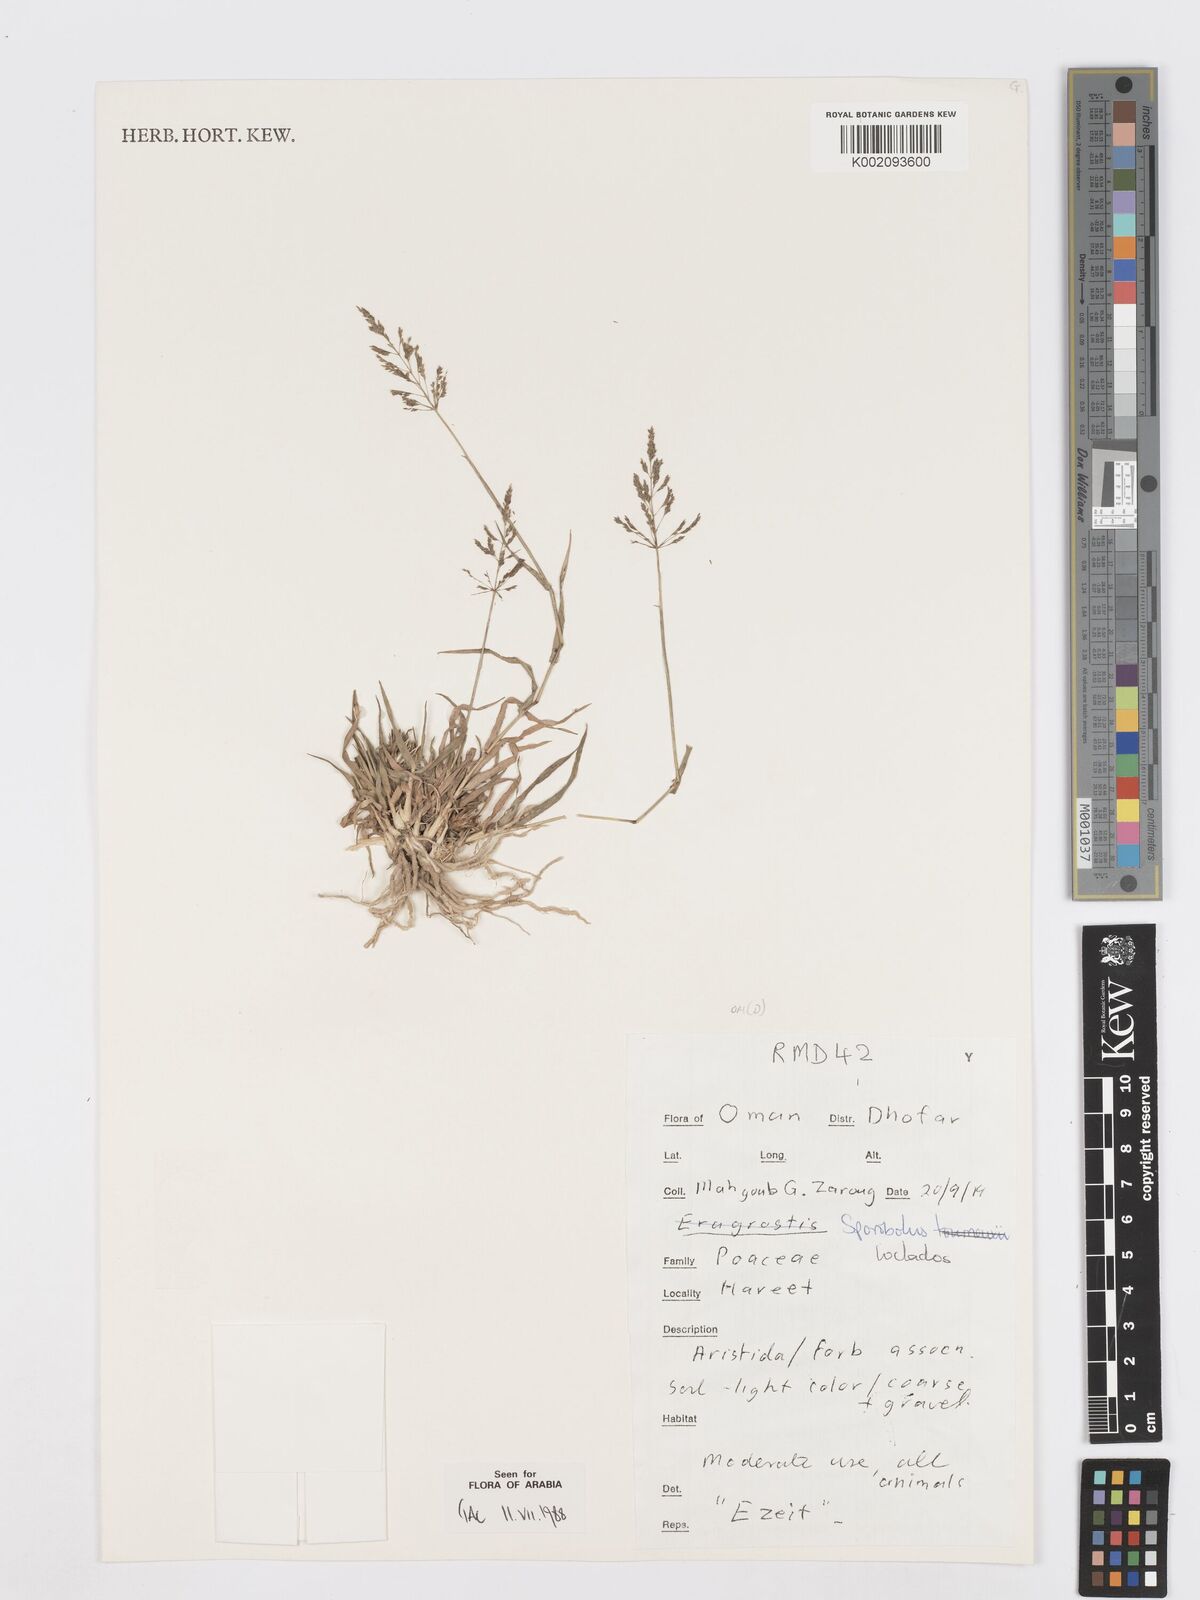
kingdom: Plantae
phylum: Tracheophyta
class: Liliopsida
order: Poales
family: Poaceae
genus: Sporobolus
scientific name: Sporobolus gloeoclados
